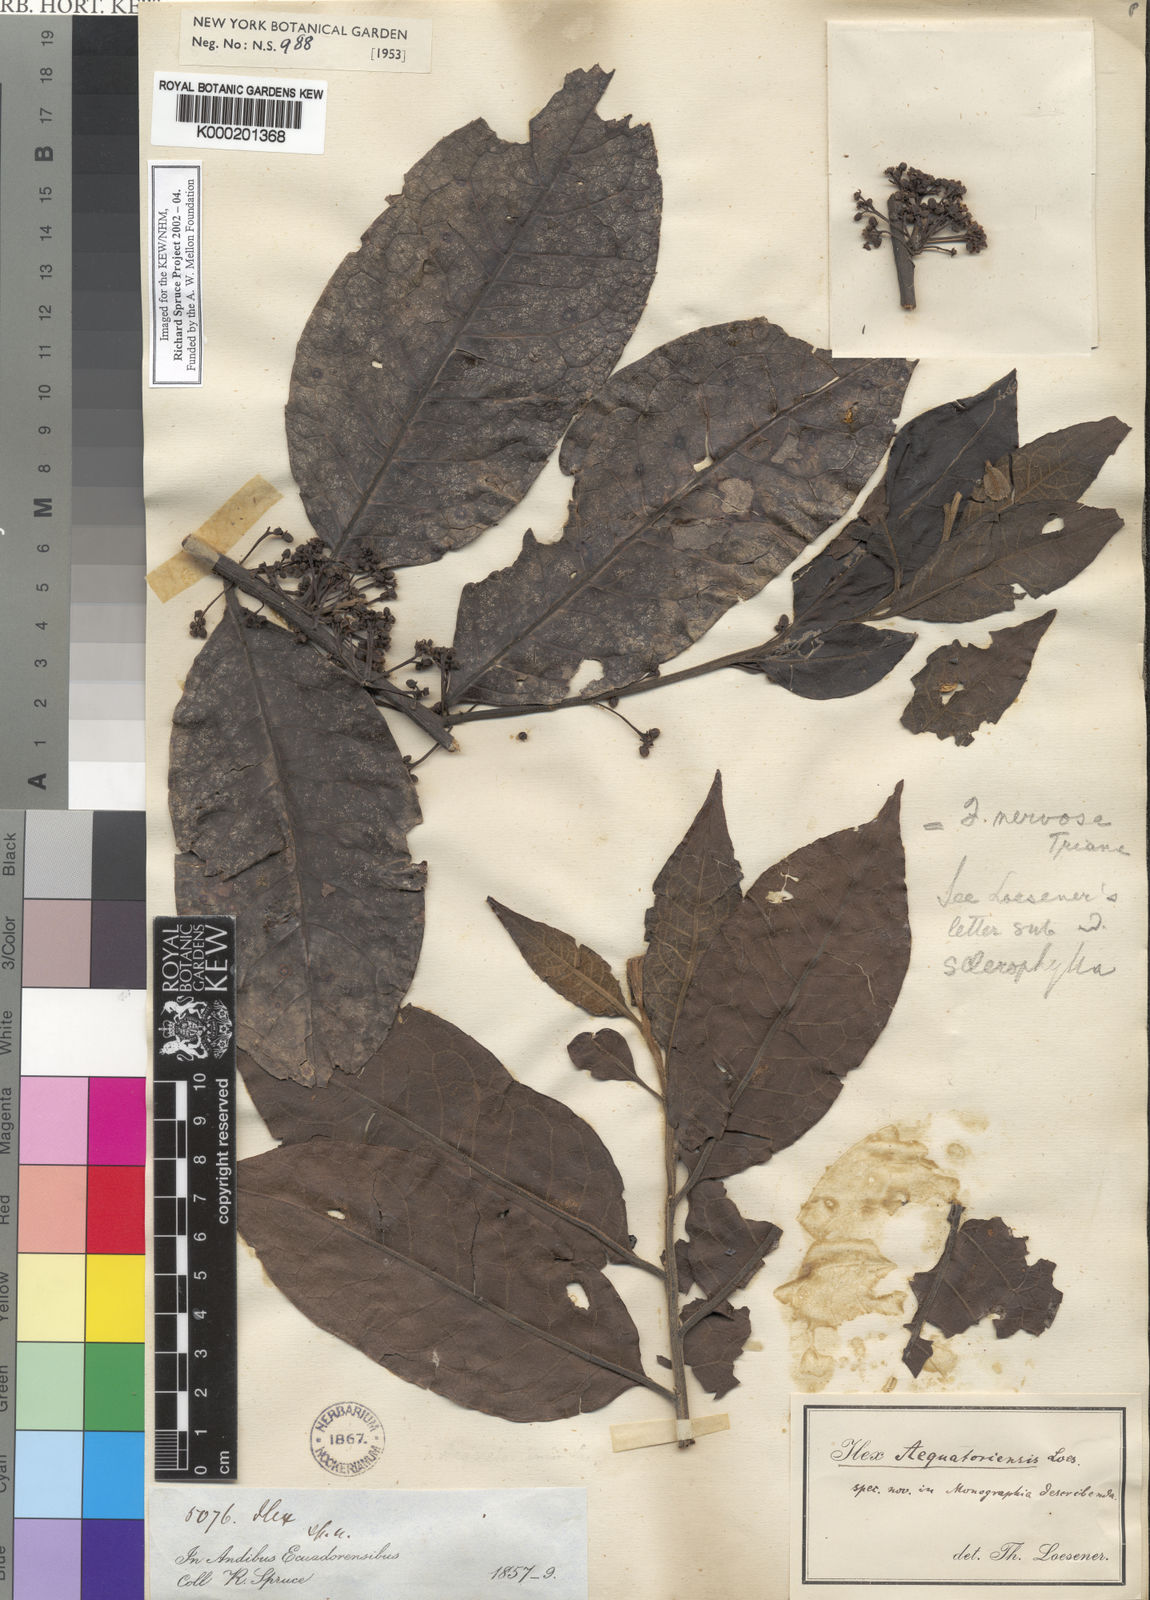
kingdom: Plantae
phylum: Tracheophyta
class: Magnoliopsida
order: Aquifoliales
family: Aquifoliaceae
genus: Ilex
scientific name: Ilex nervosa
